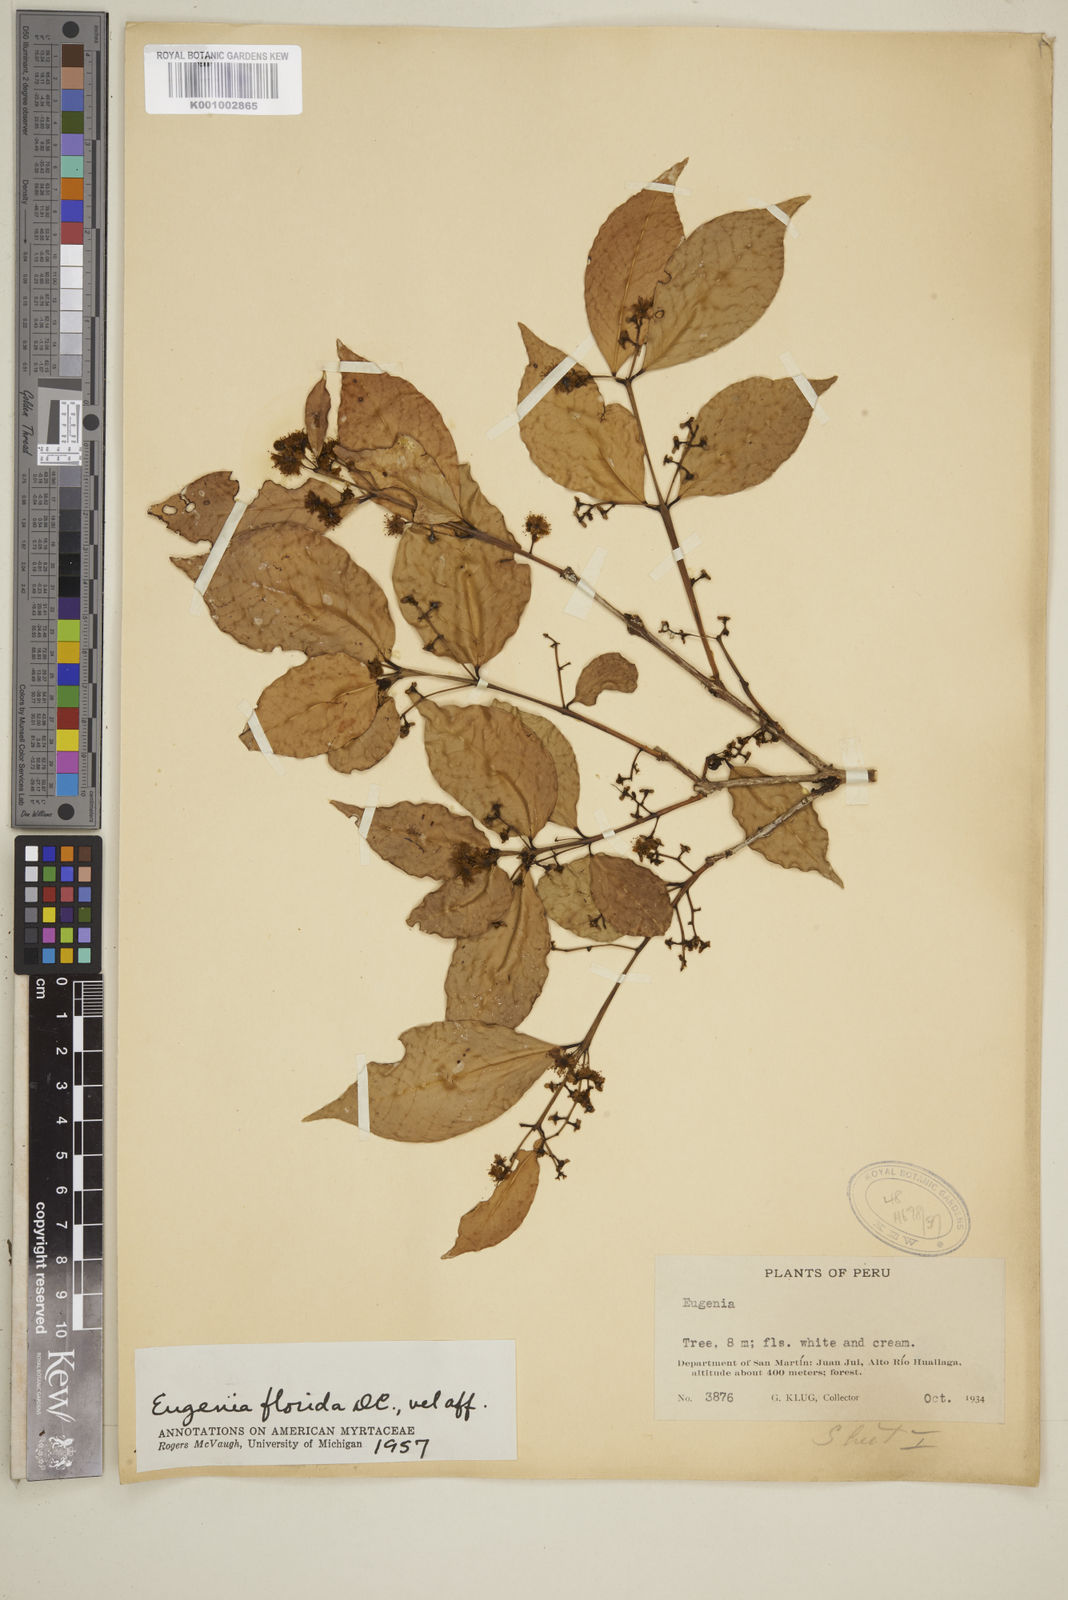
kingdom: Plantae
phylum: Tracheophyta
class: Magnoliopsida
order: Myrtales
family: Myrtaceae
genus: Eugenia
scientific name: Eugenia florida
